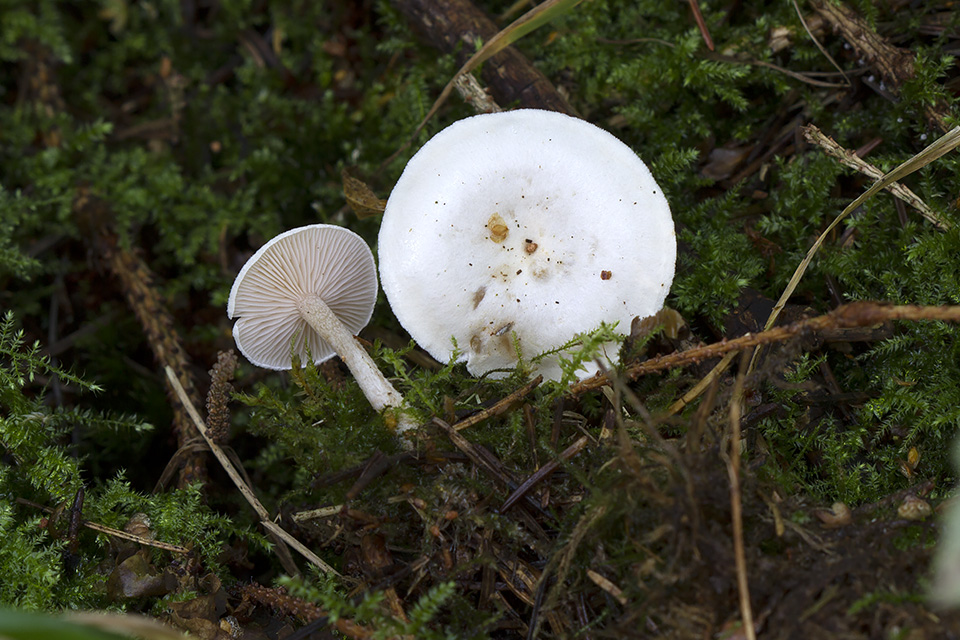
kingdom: Fungi
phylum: Basidiomycota
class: Agaricomycetes
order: Agaricales
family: Tricholomataceae
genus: Leucocybe
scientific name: Leucocybe candicans
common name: kridt-tragthat
